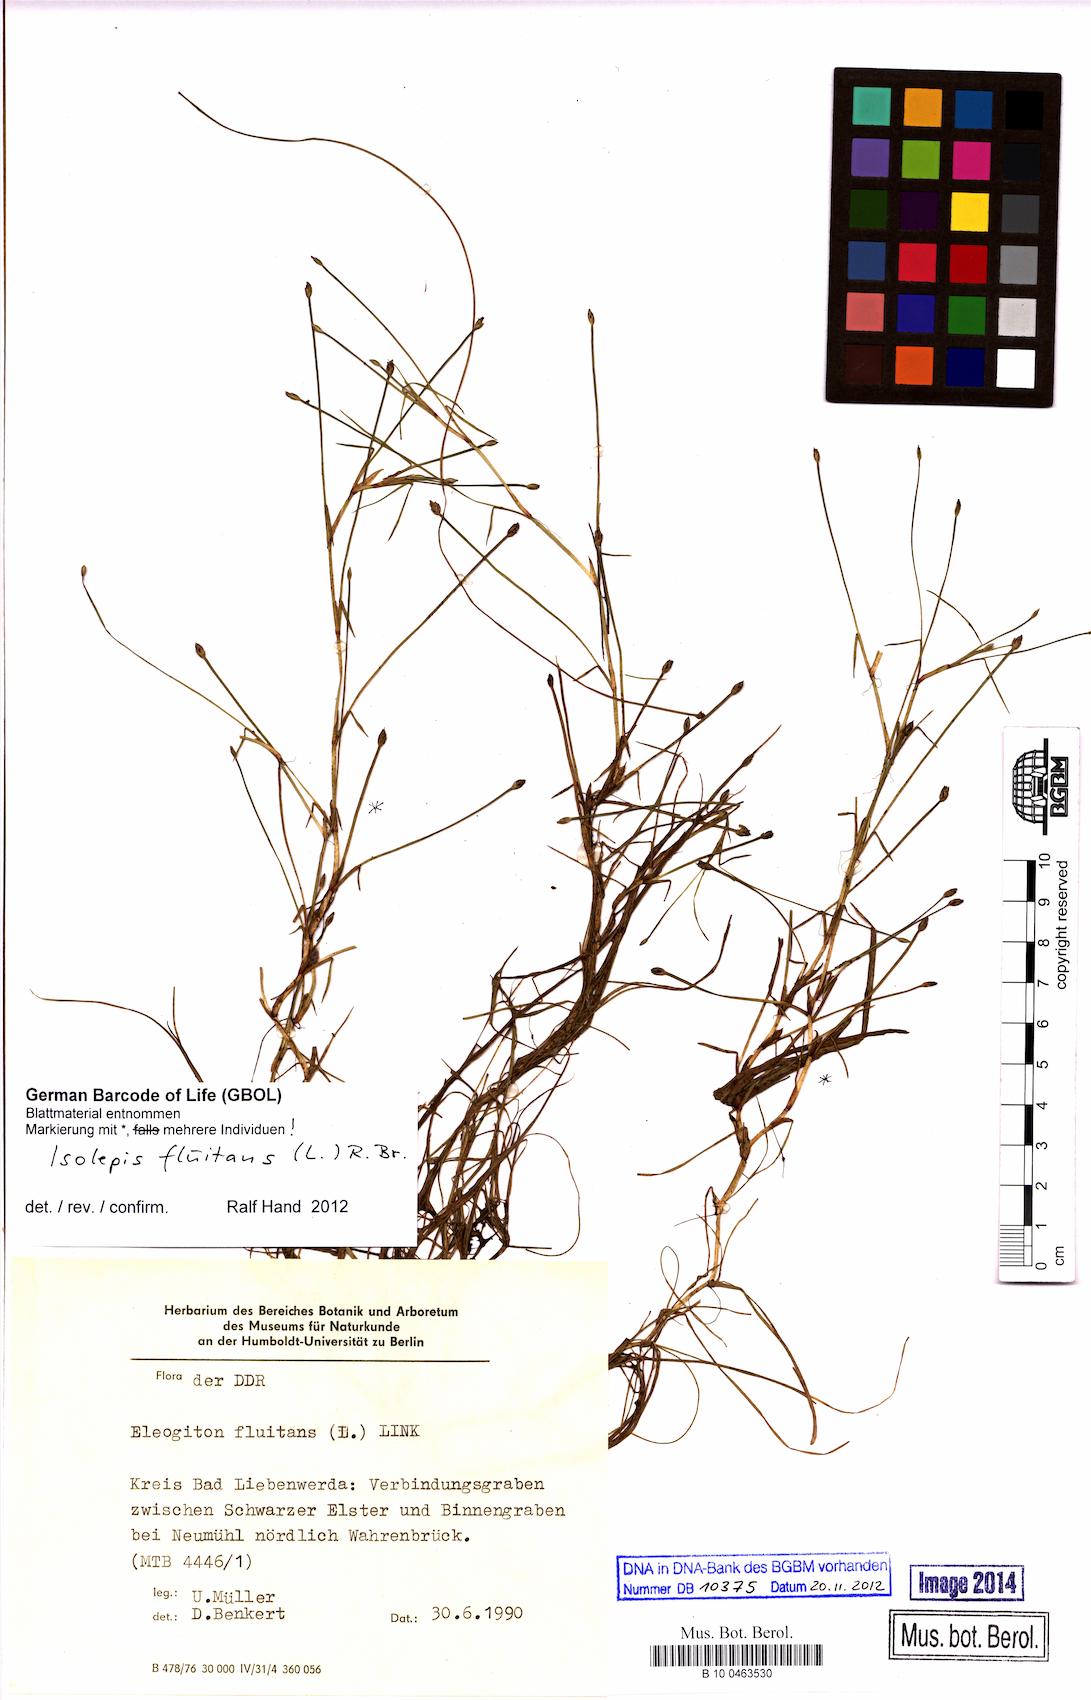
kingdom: Plantae
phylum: Tracheophyta
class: Liliopsida
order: Poales
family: Cyperaceae
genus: Isolepis
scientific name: Isolepis fluitans
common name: Floating club-rush
